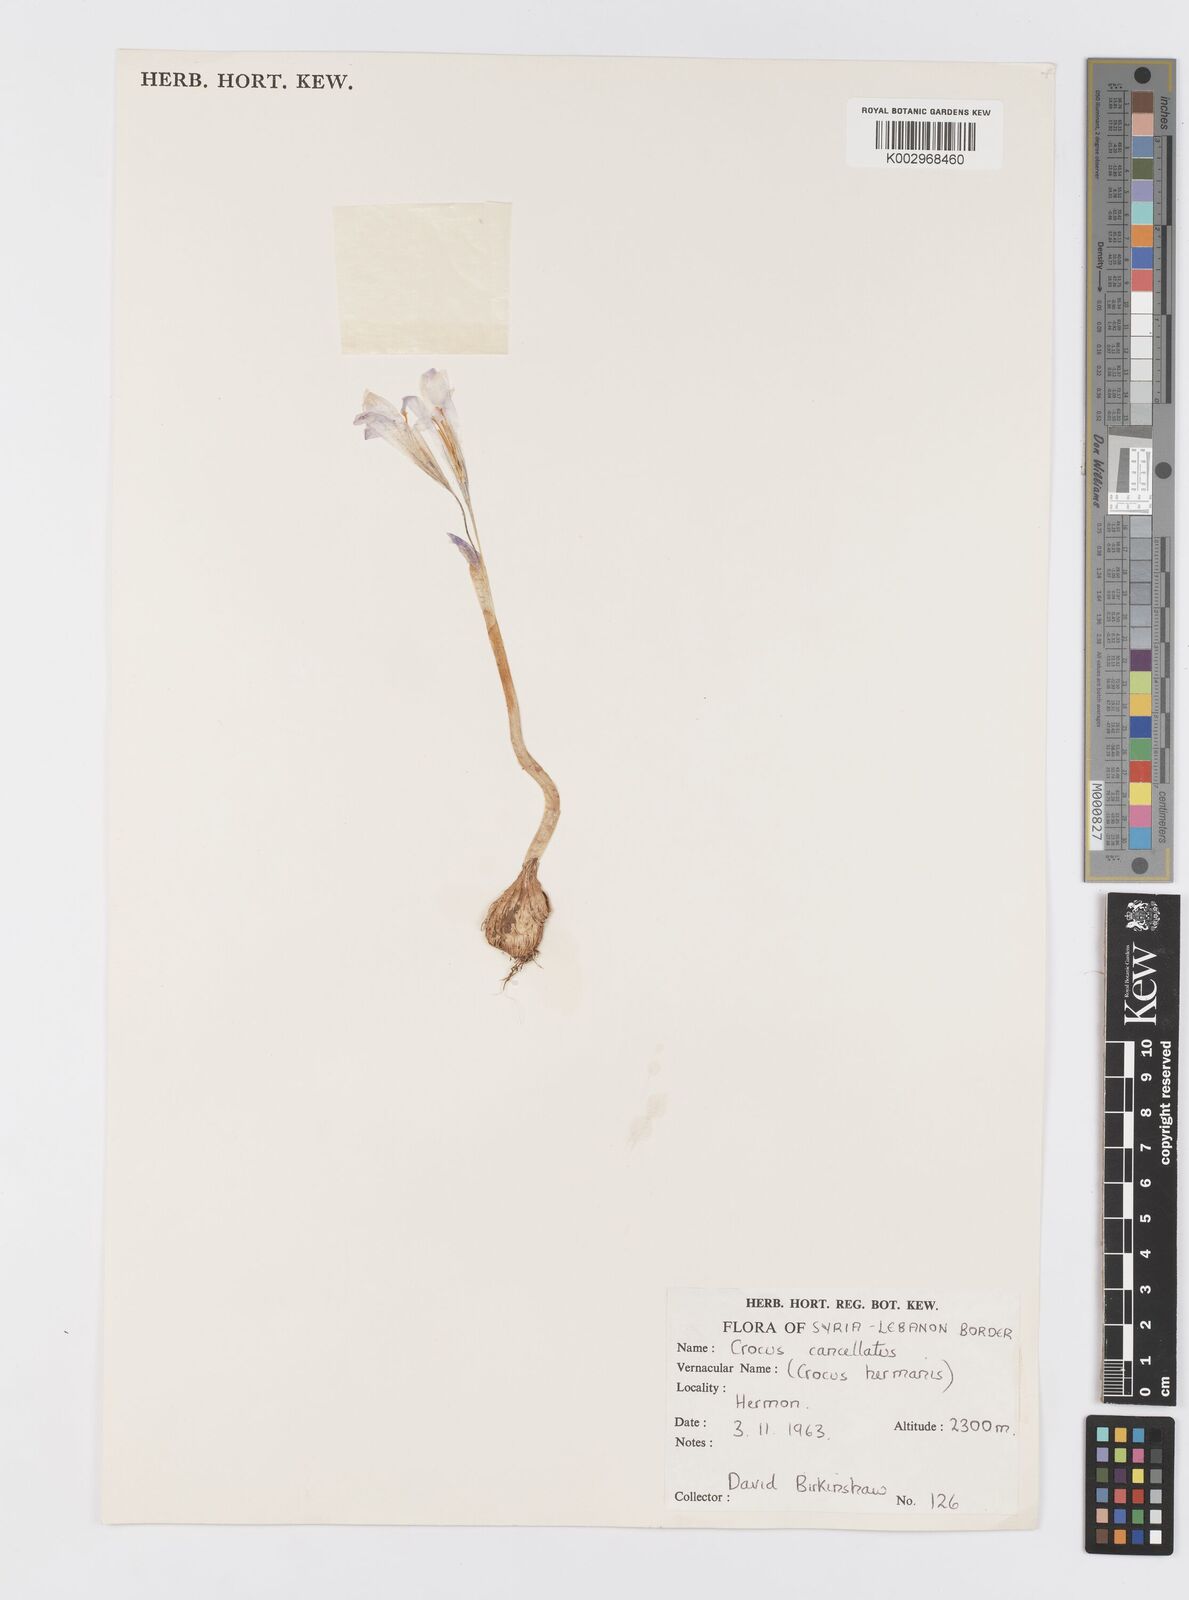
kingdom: Plantae
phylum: Tracheophyta
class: Liliopsida
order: Asparagales
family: Iridaceae
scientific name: Iridaceae
